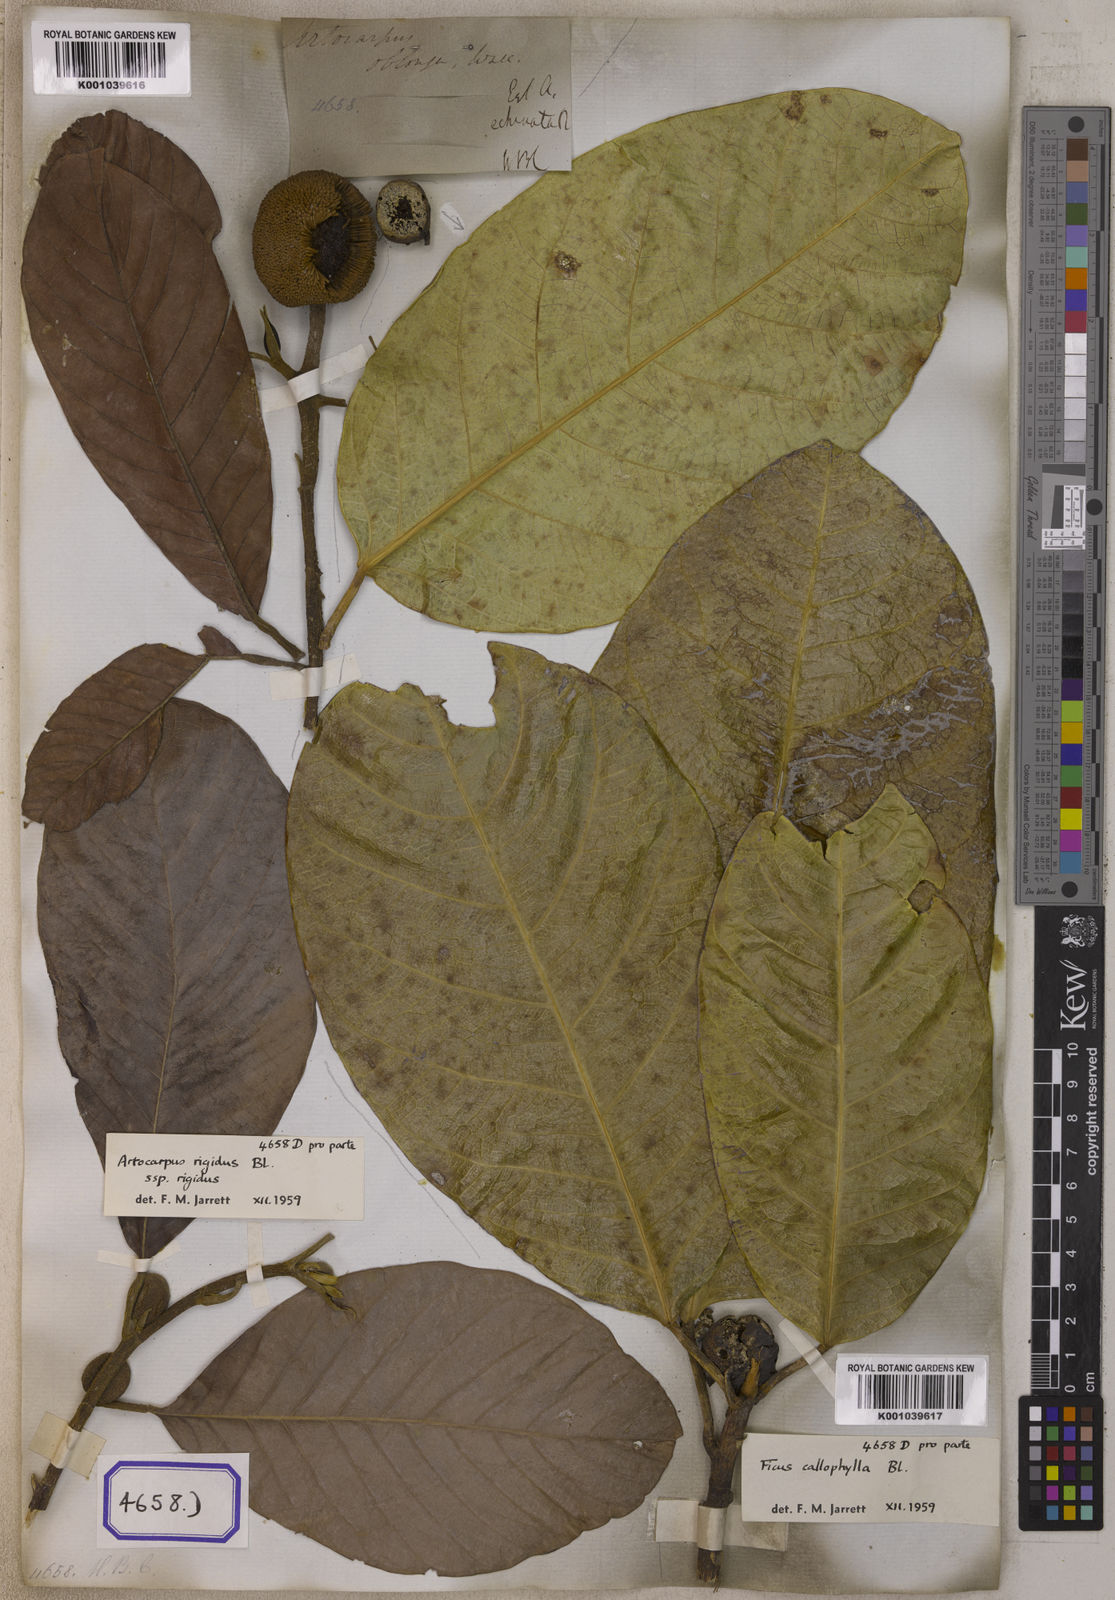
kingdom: Plantae
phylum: Tracheophyta
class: Magnoliopsida
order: Rosales
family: Moraceae
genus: Artocarpus
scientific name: Artocarpus rigidus
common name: Monkey-jack
